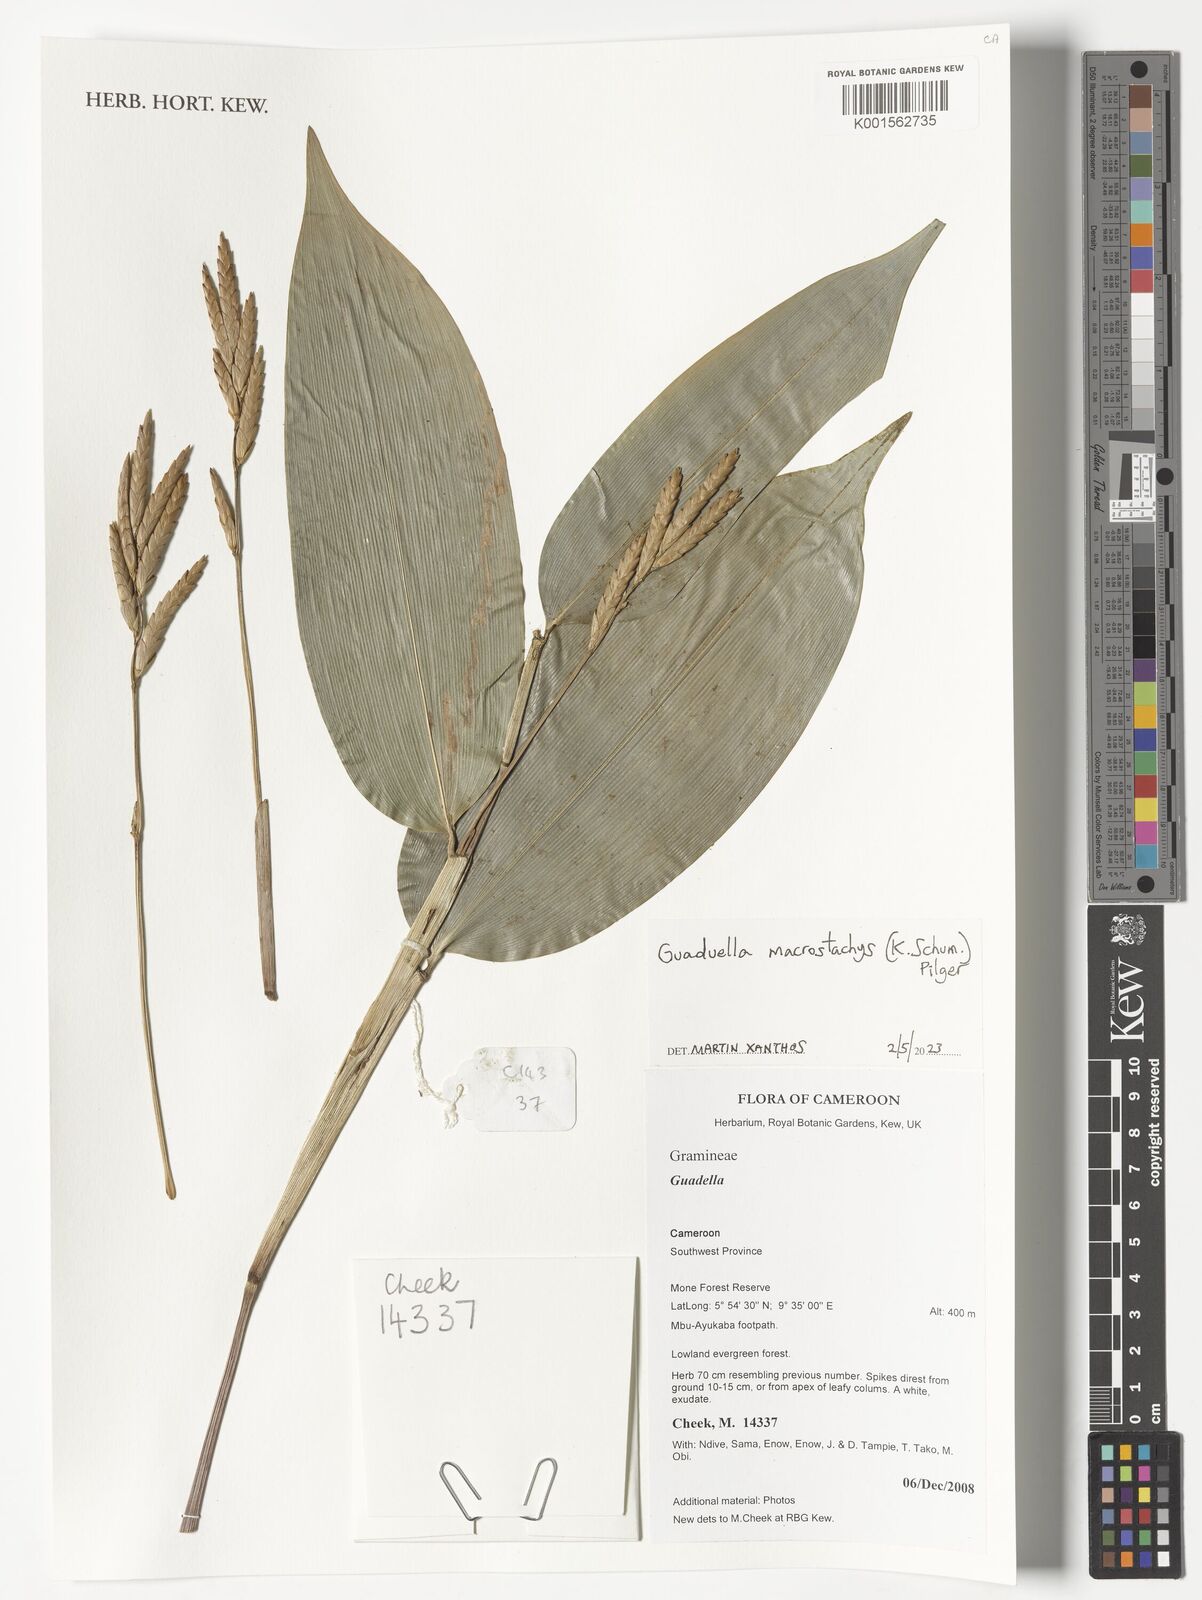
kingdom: Plantae
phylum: Tracheophyta
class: Liliopsida
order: Poales
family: Poaceae
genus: Guaduella
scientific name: Guaduella macrostachys
